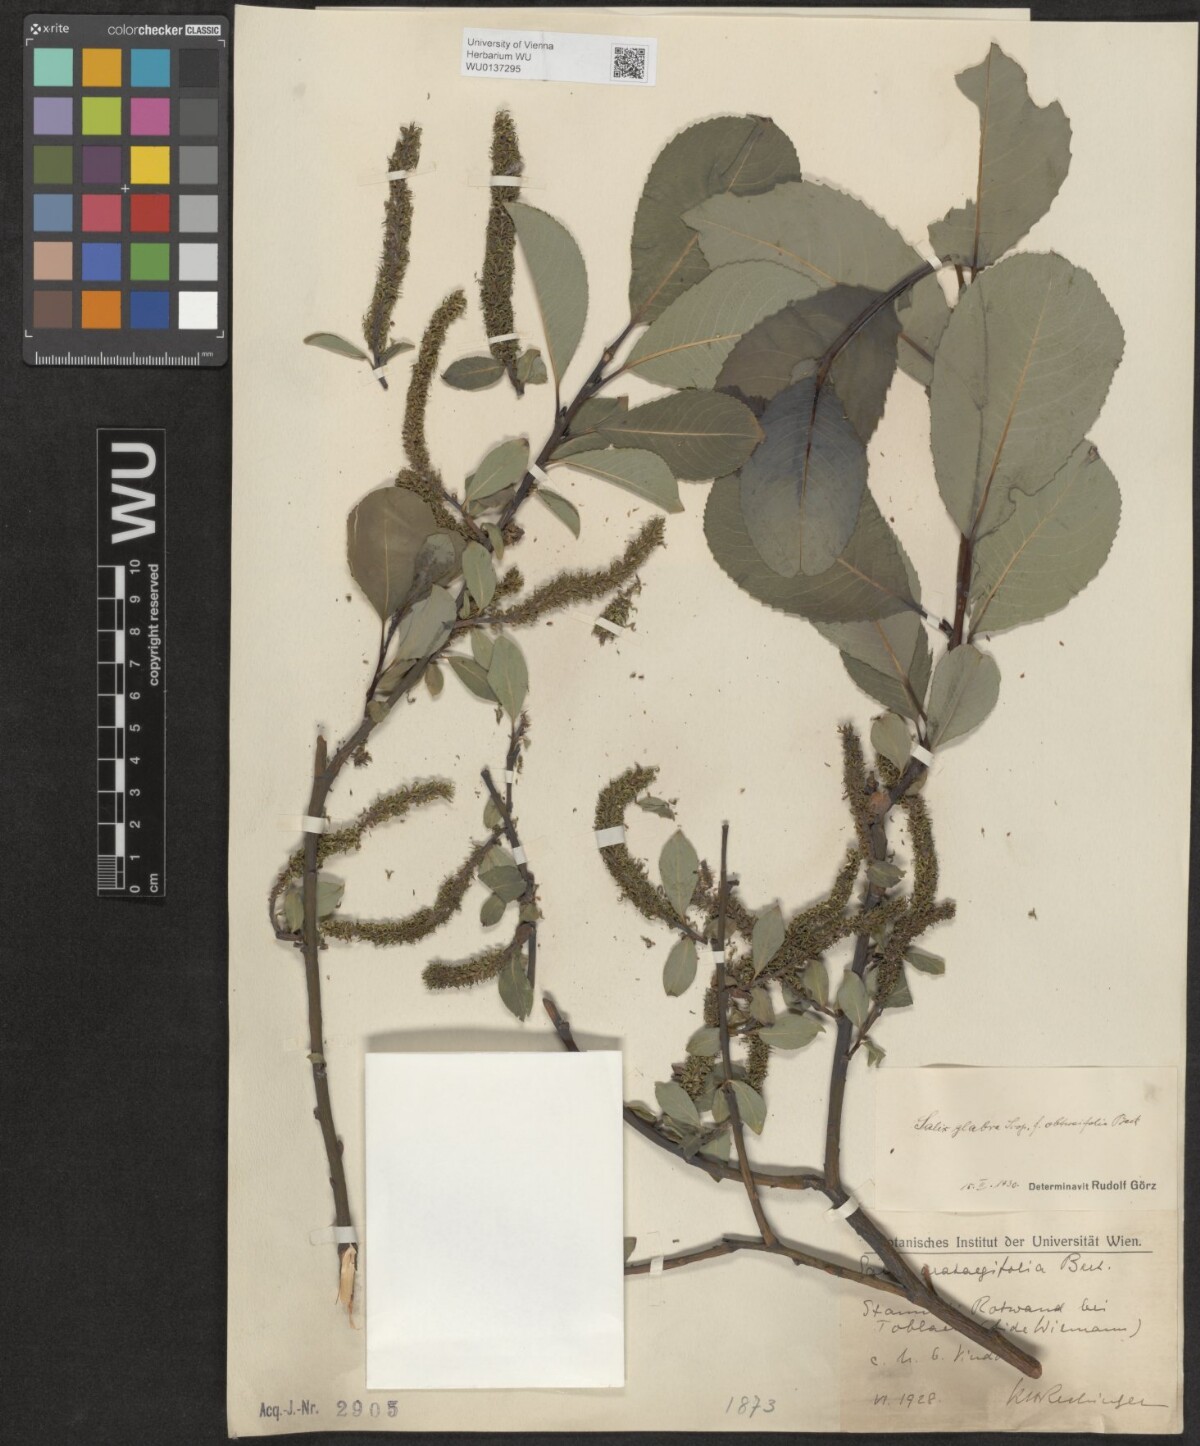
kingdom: Plantae
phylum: Tracheophyta
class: Magnoliopsida
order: Malpighiales
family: Salicaceae
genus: Salix
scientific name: Salix glabra
